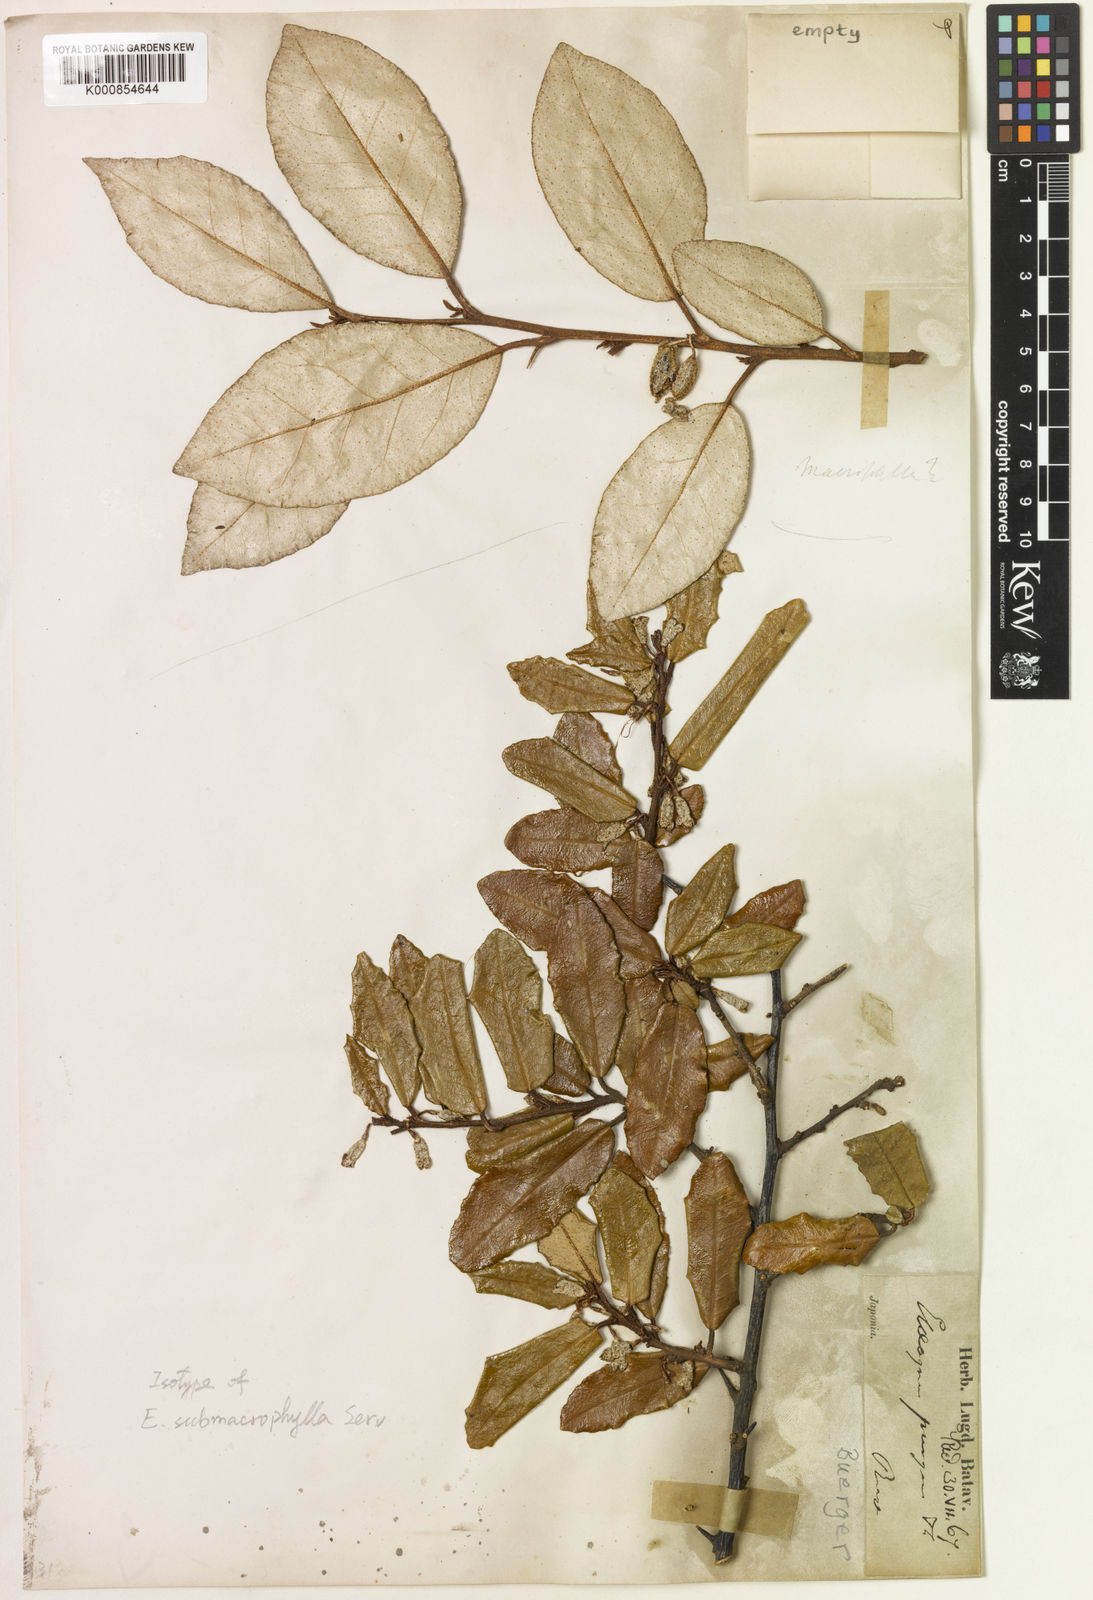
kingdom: Plantae
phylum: Tracheophyta
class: Magnoliopsida
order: Rosales
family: Elaeagnaceae
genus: Elaeagnus
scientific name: Elaeagnus pungens
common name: Spiny oleaster
